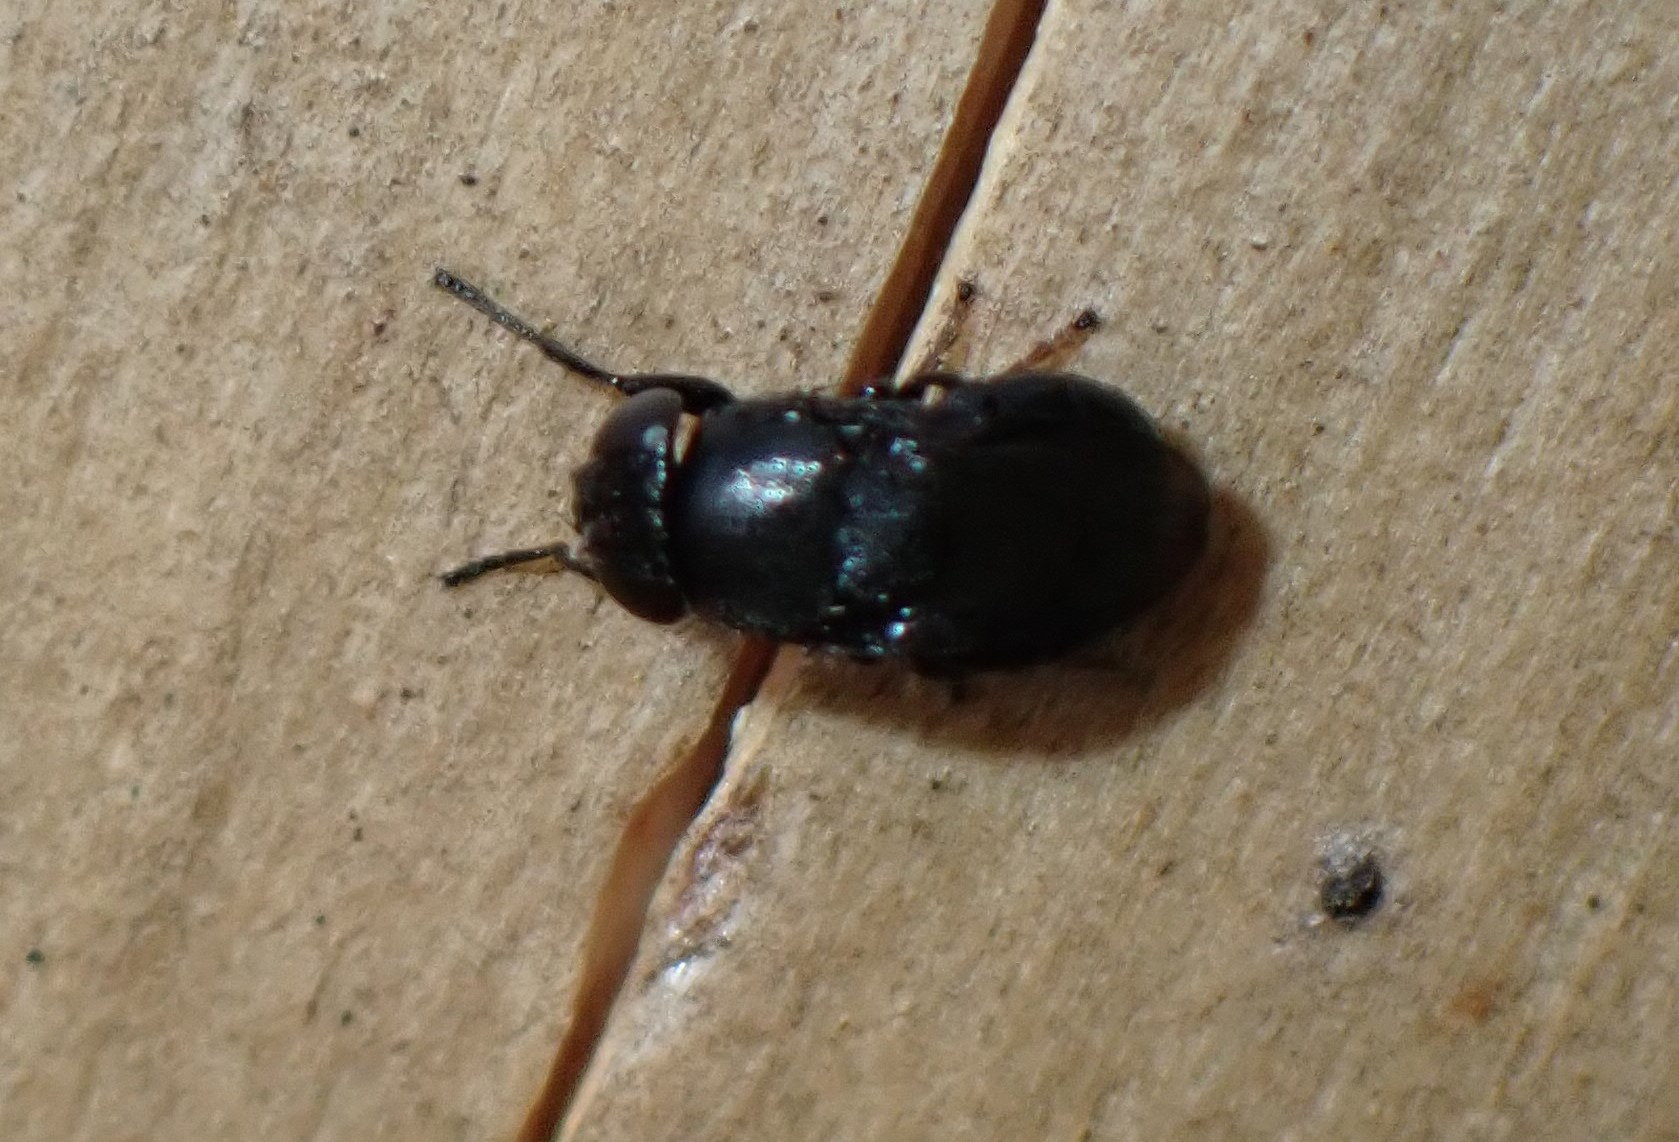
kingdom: Animalia
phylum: Arthropoda
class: Insecta
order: Diptera
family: Ephydridae
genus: Discomyza
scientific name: Discomyza incurva
